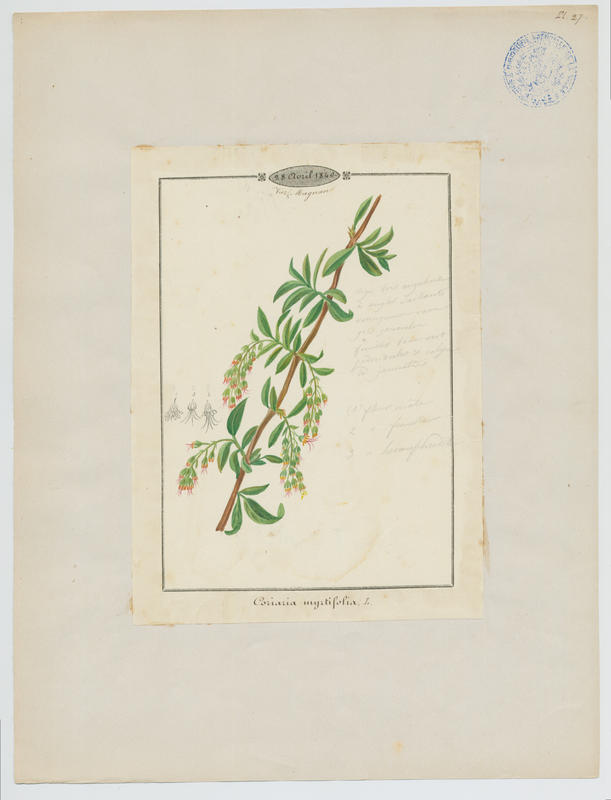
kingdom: Plantae
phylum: Tracheophyta
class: Magnoliopsida
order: Cucurbitales
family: Coriariaceae
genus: Coriaria
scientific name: Coriaria myrtifolia
